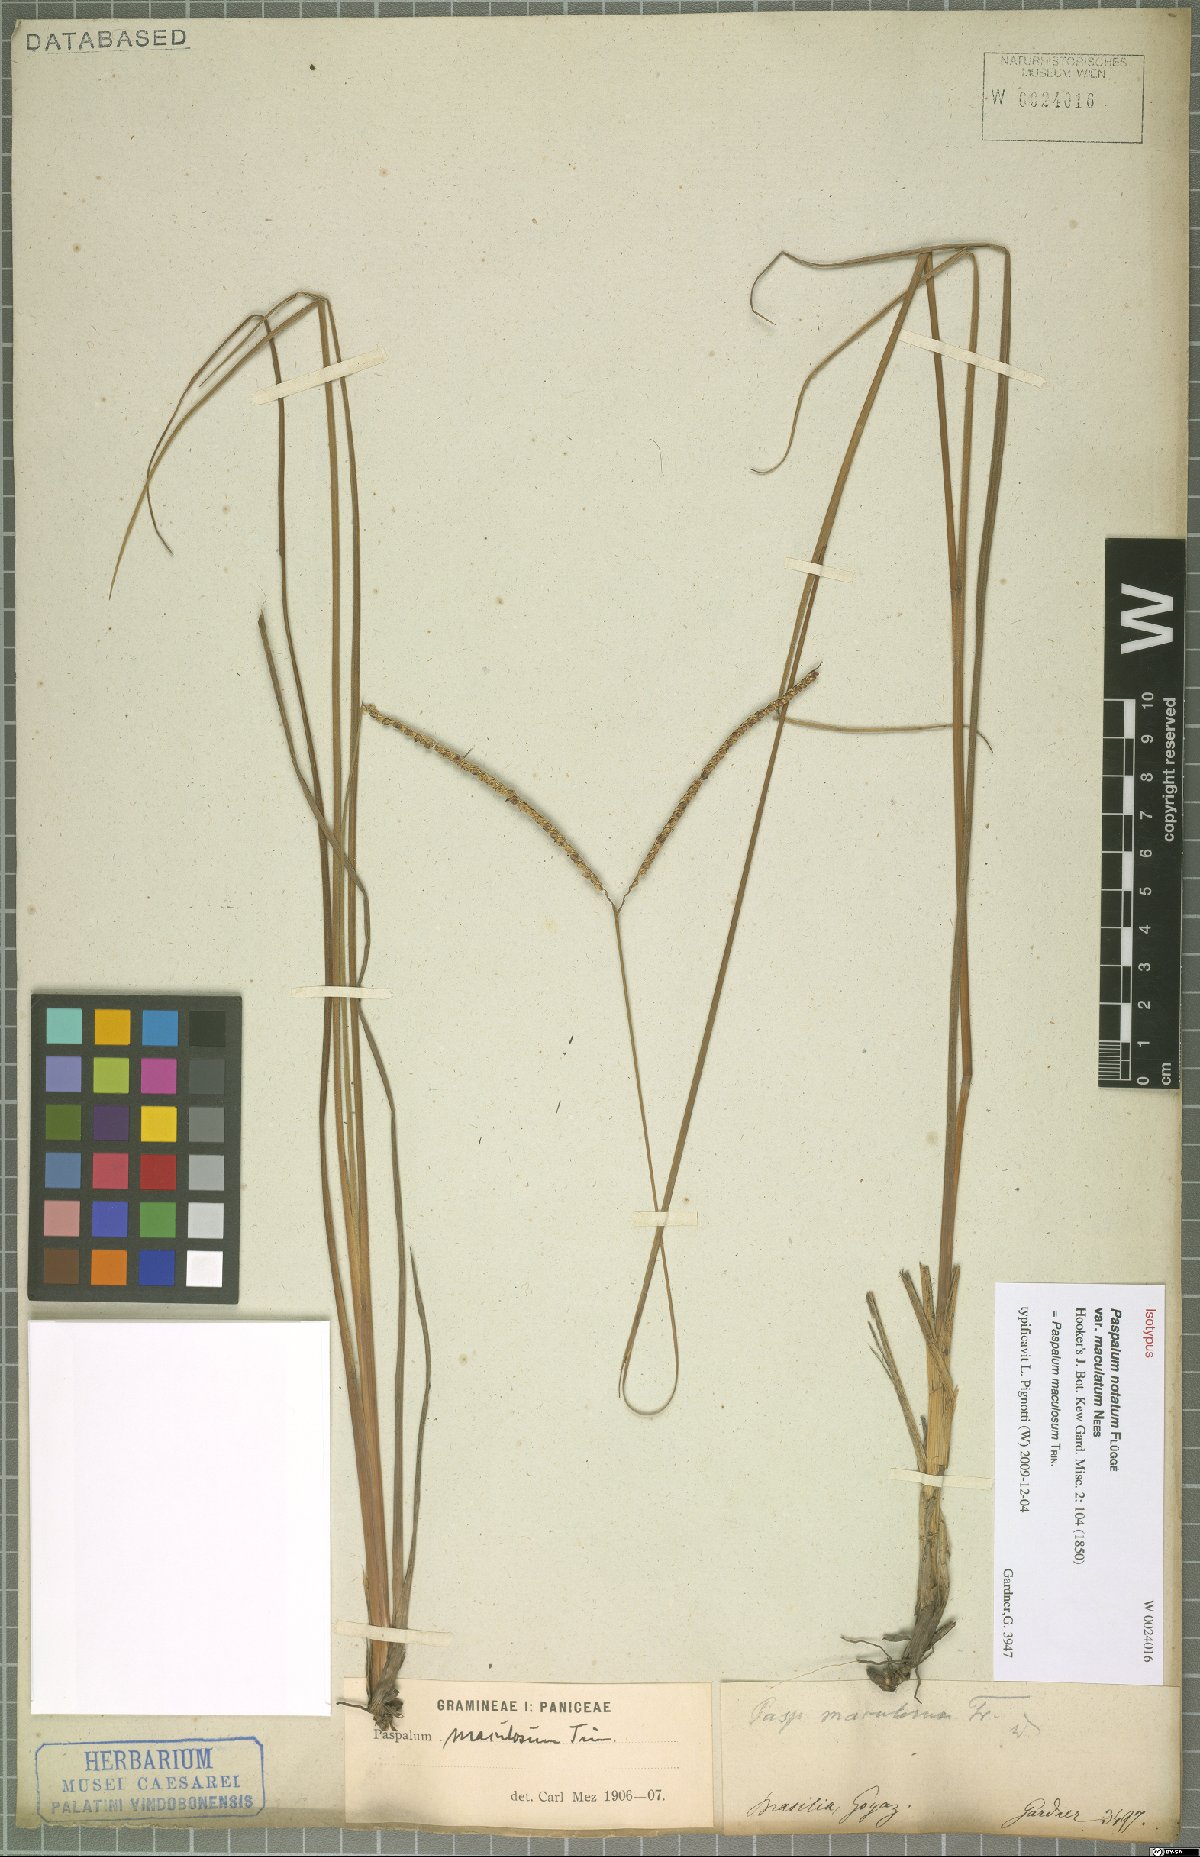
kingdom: Plantae
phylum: Tracheophyta
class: Liliopsida
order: Poales
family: Poaceae
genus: Paspalum
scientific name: Paspalum maculosum
